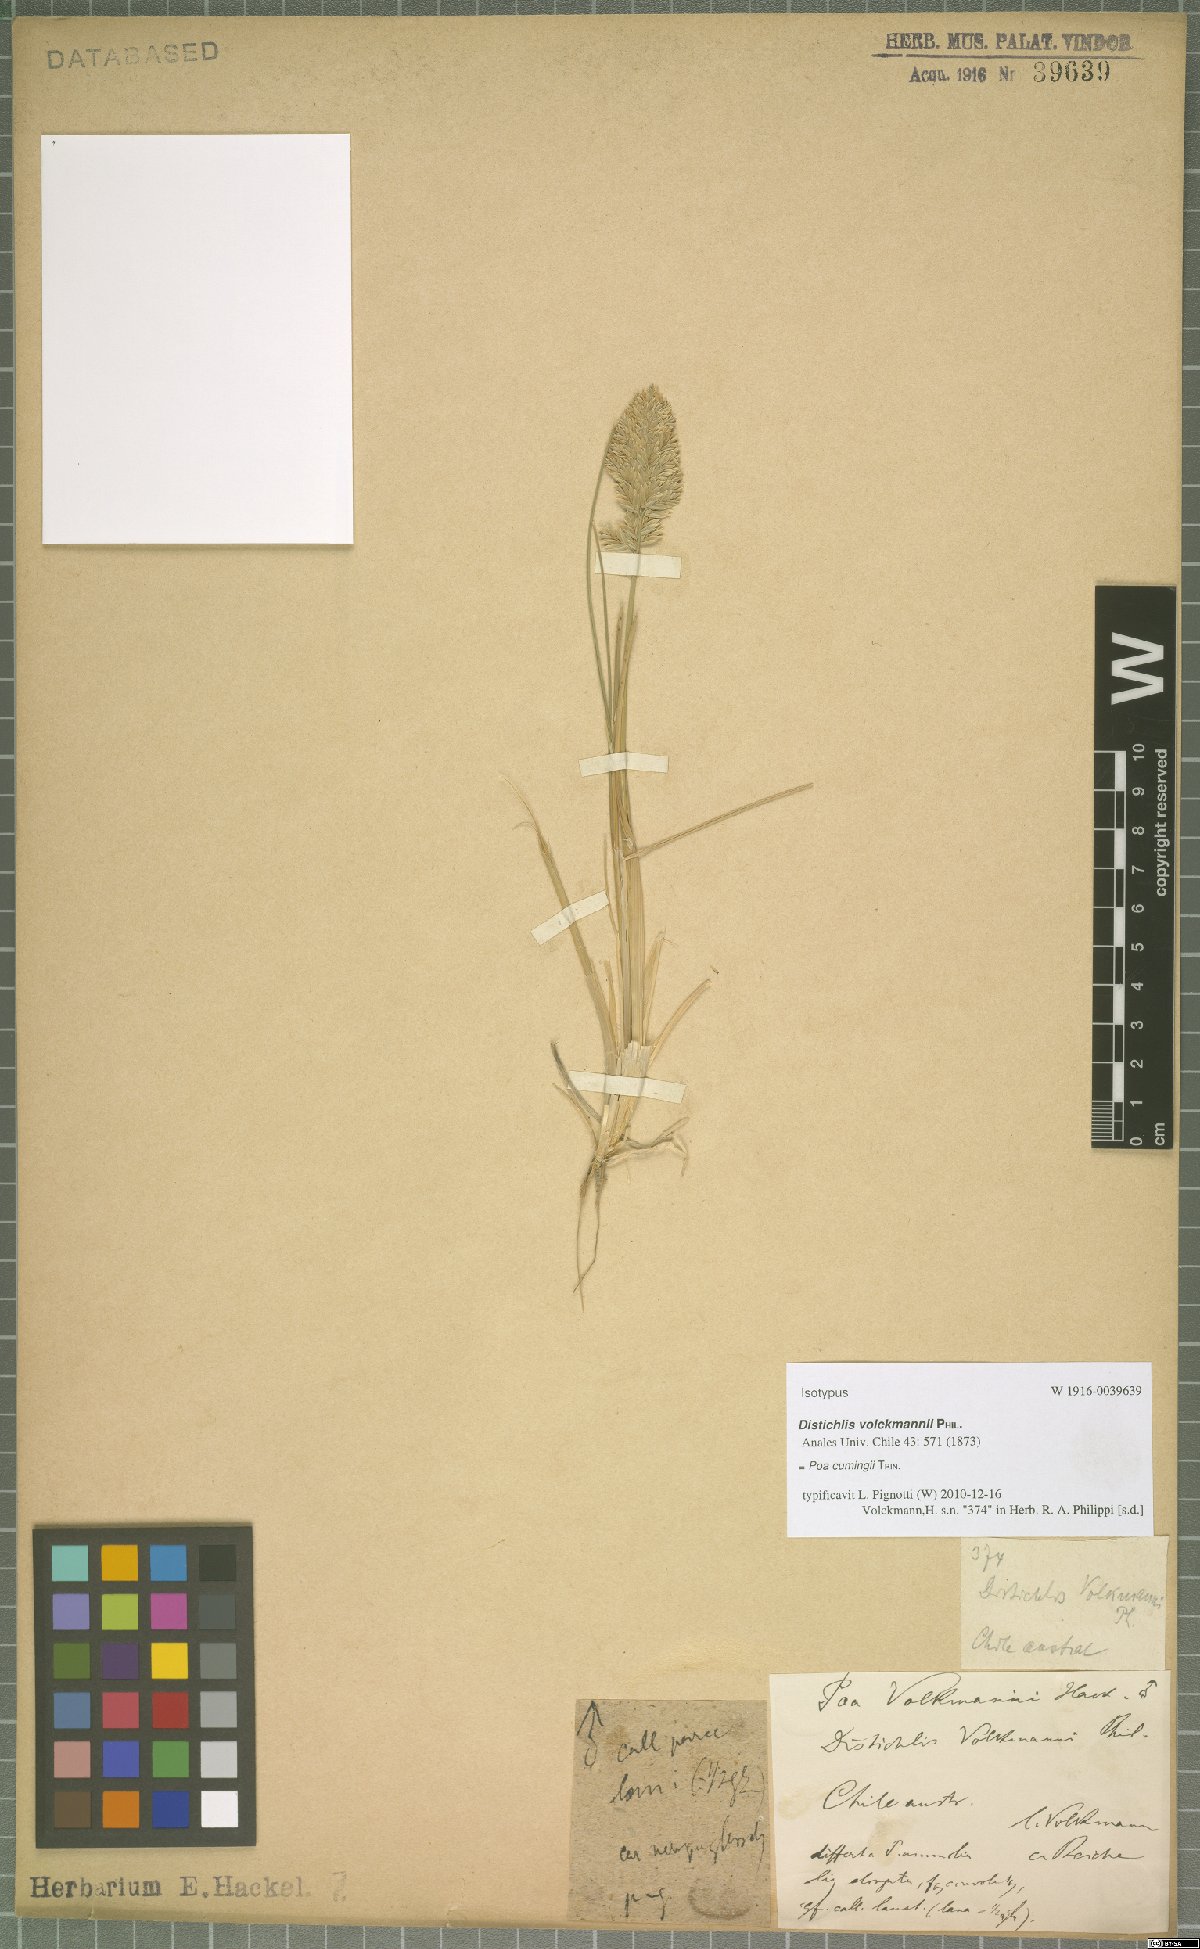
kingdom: Plantae
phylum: Tracheophyta
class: Liliopsida
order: Poales
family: Poaceae
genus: Poa
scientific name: Poa cumingii
